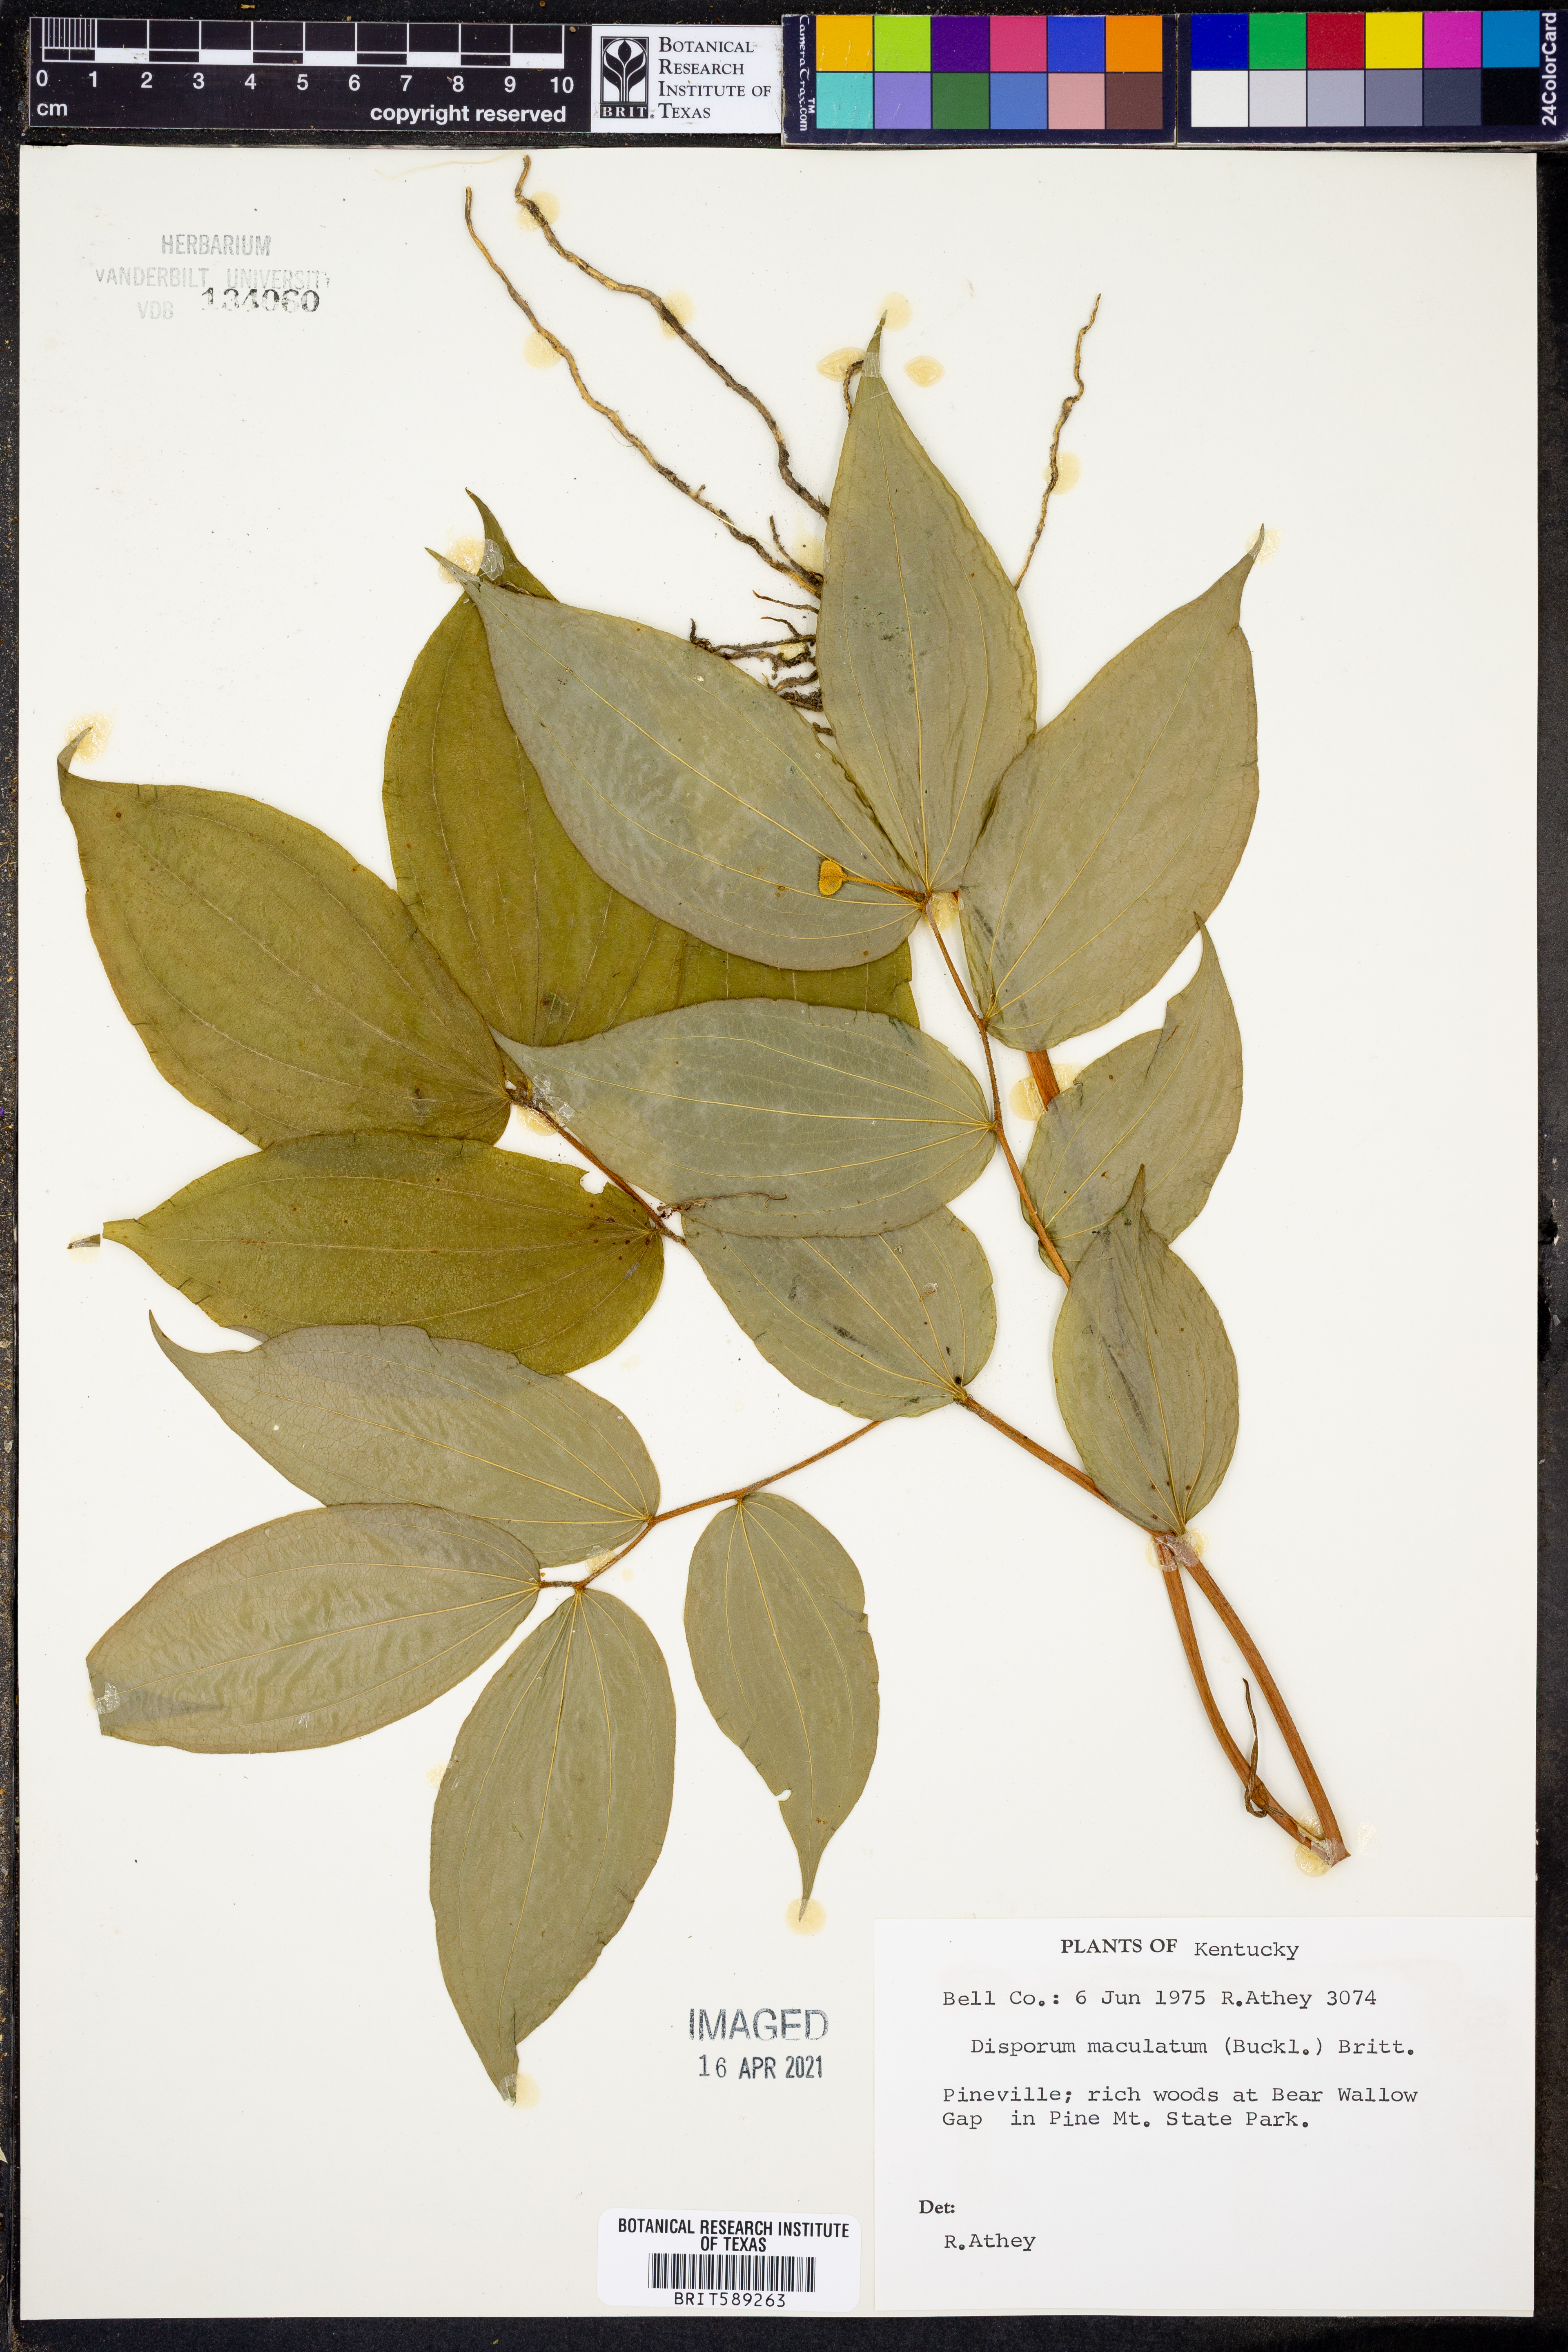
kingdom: Plantae
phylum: Tracheophyta
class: Liliopsida
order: Liliales
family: Liliaceae
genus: Prosartes
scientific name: Prosartes maculata
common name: Yellow mandarin
